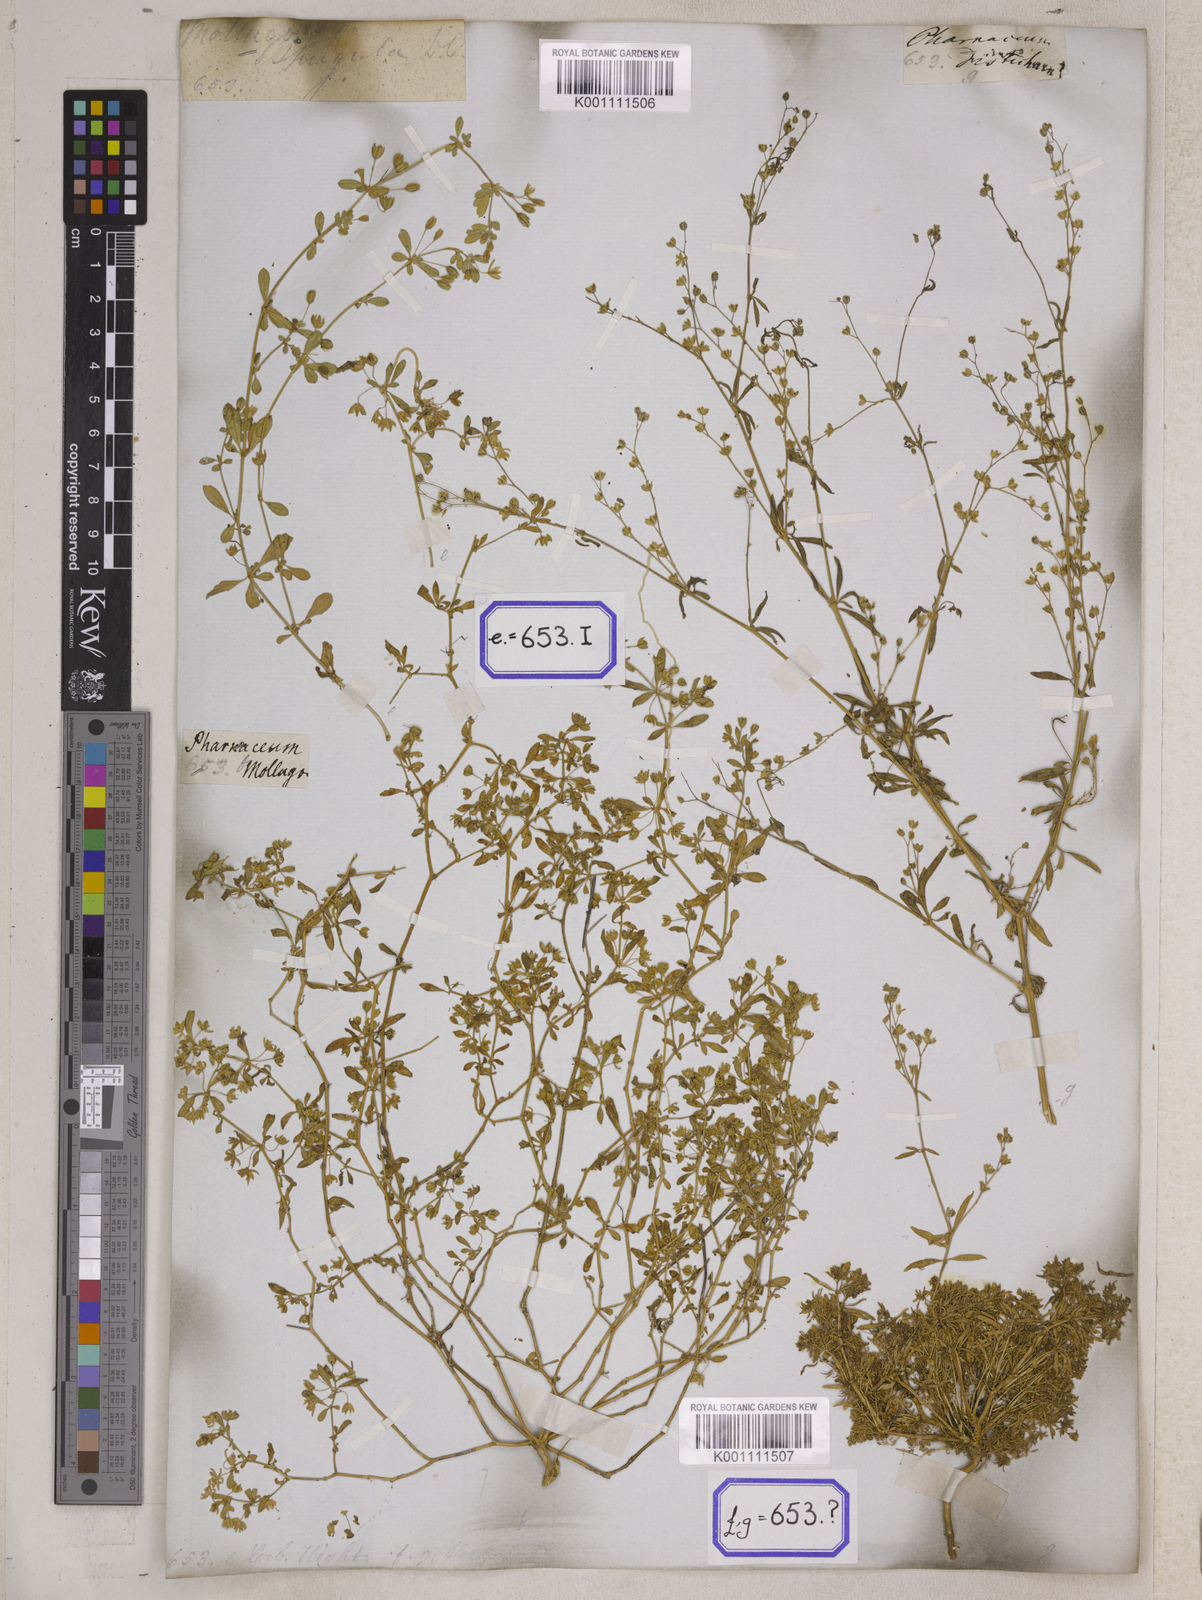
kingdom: Plantae
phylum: Tracheophyta
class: Magnoliopsida
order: Caryophyllales
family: Molluginaceae
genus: Glinus
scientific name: Glinus oppositifolius
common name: Slender carpetweed
